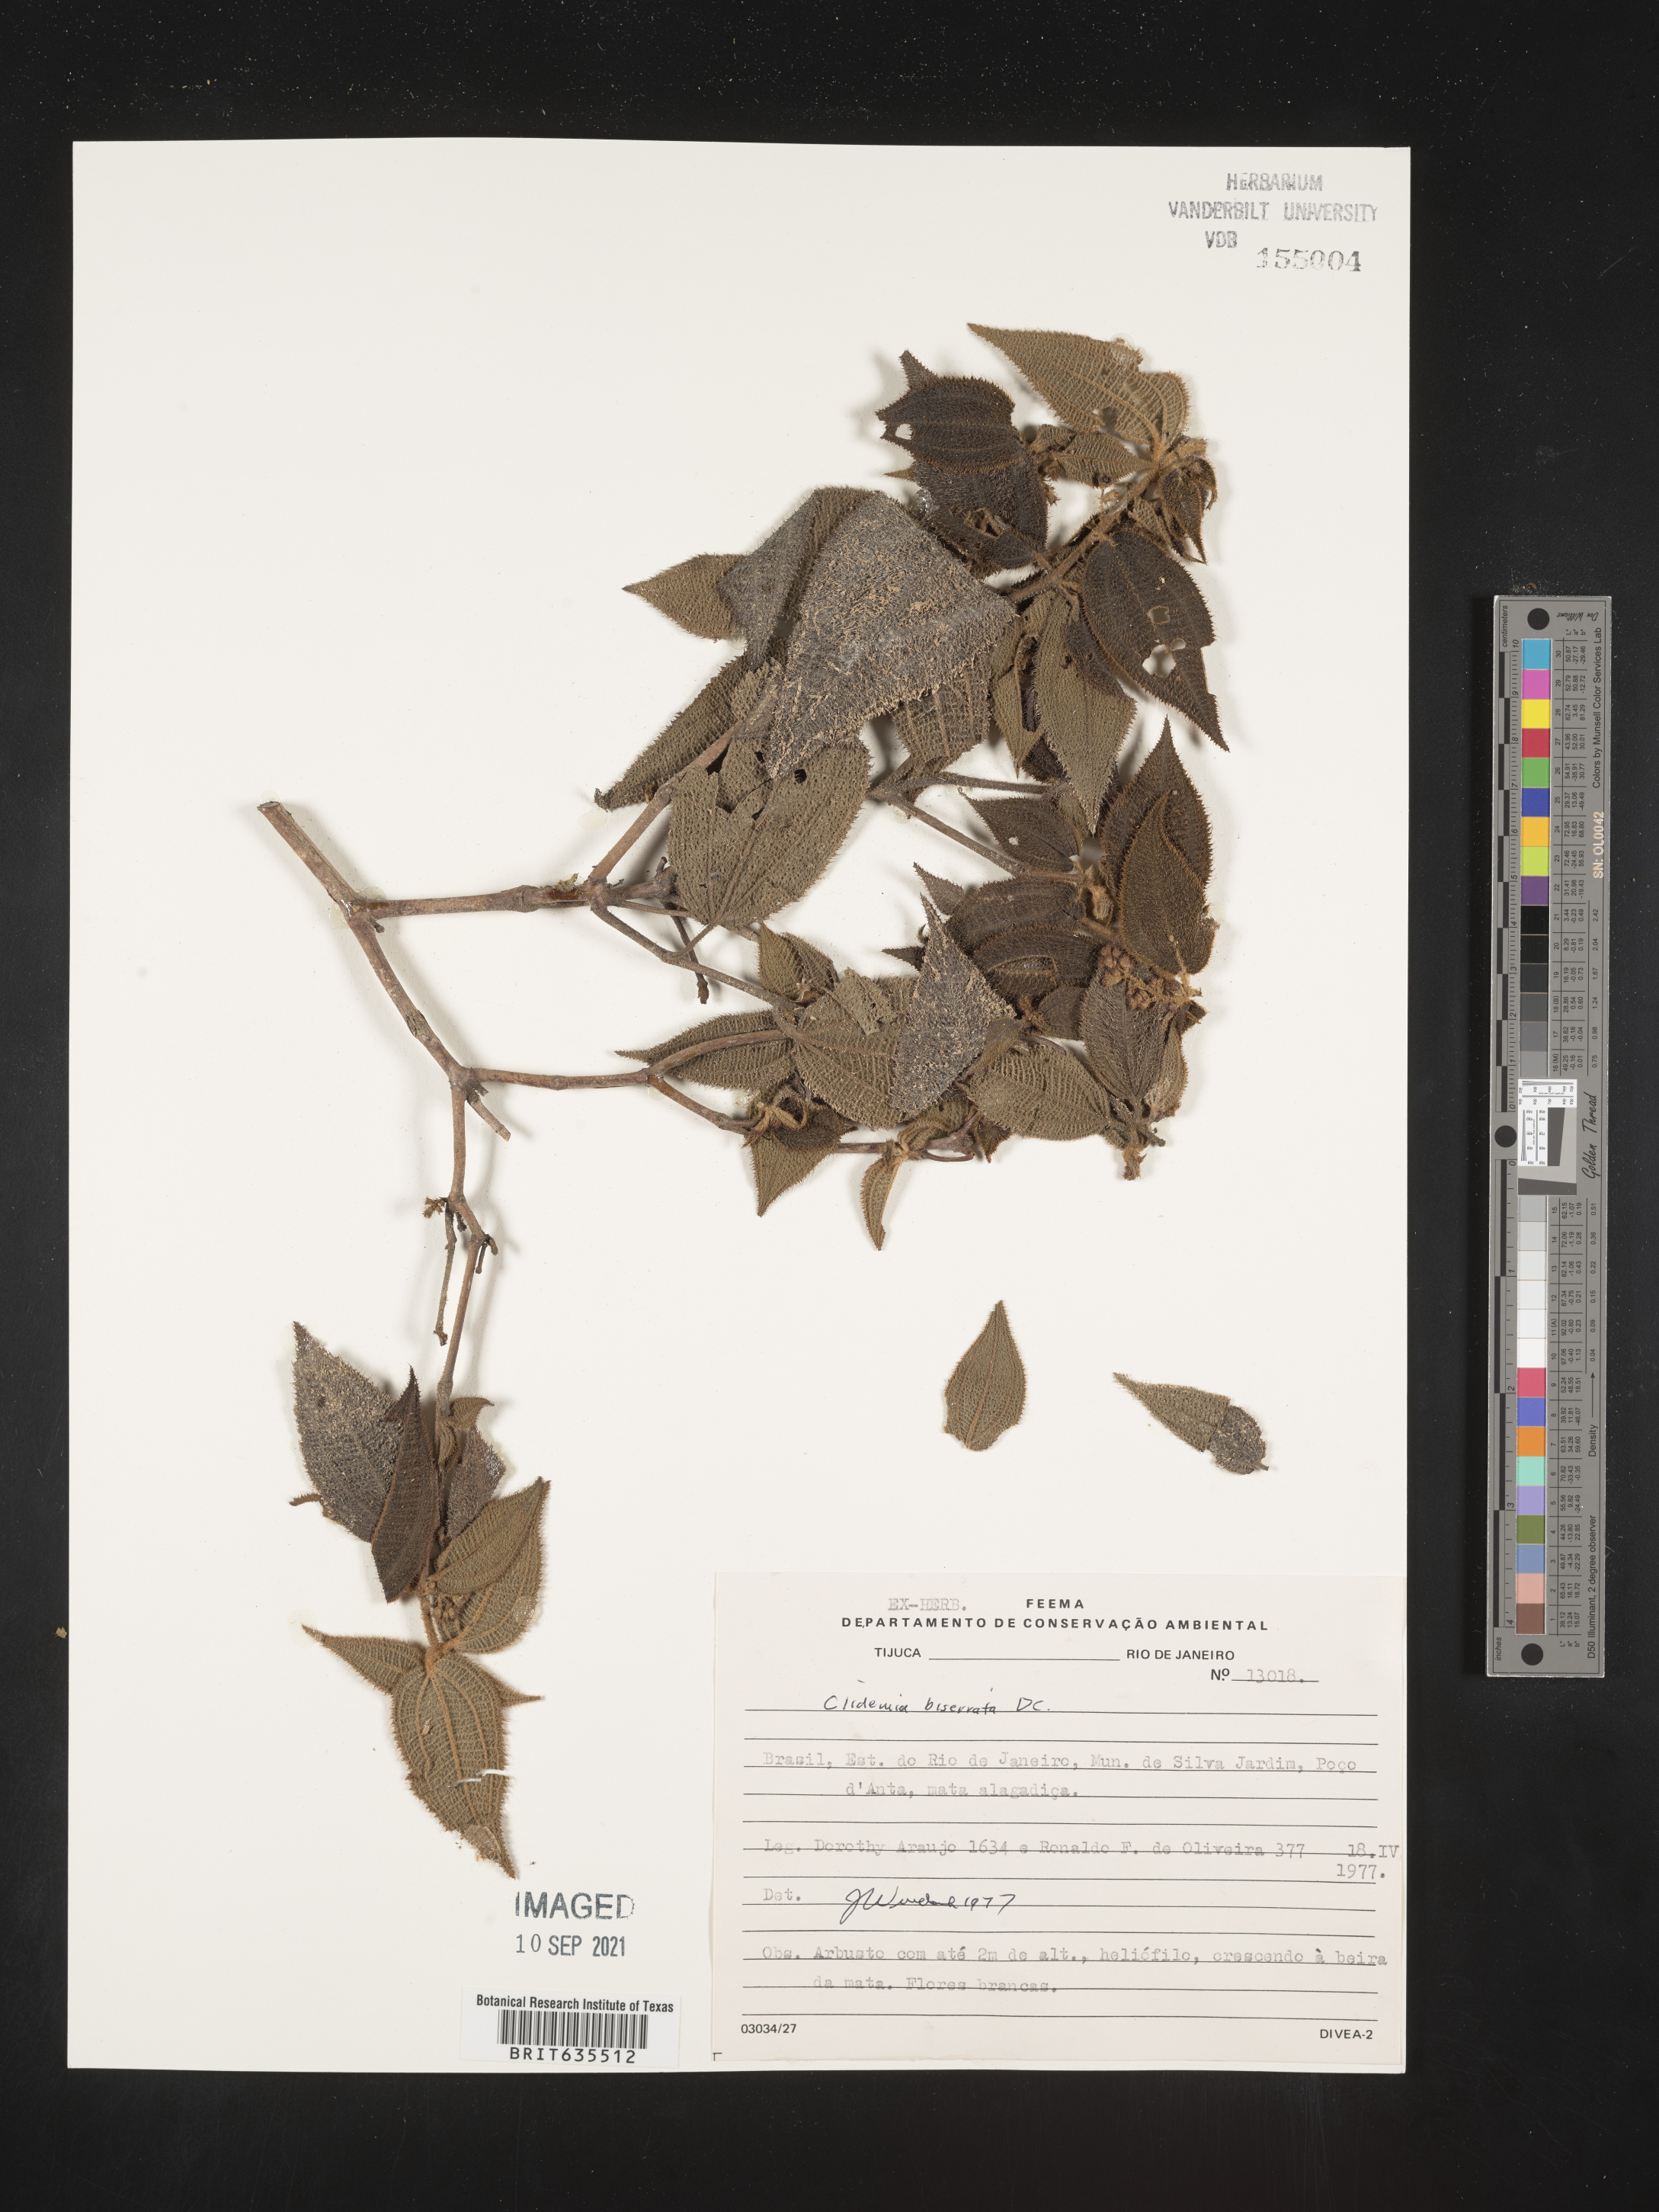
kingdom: Plantae
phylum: Tracheophyta
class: Magnoliopsida
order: Myrtales
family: Melastomataceae
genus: Miconia
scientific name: Miconia
